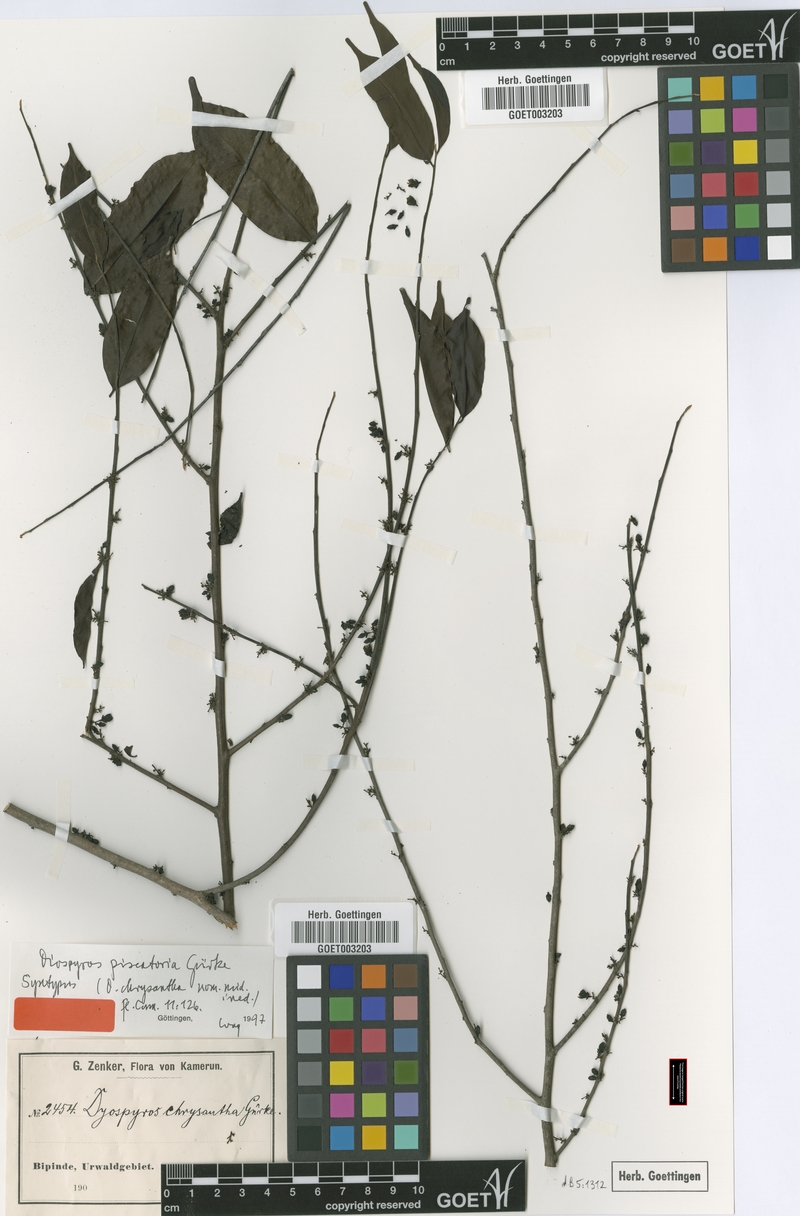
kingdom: Plantae
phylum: Tracheophyta
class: Magnoliopsida
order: Ericales
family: Ebenaceae
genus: Diospyros
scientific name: Diospyros piscatoria
